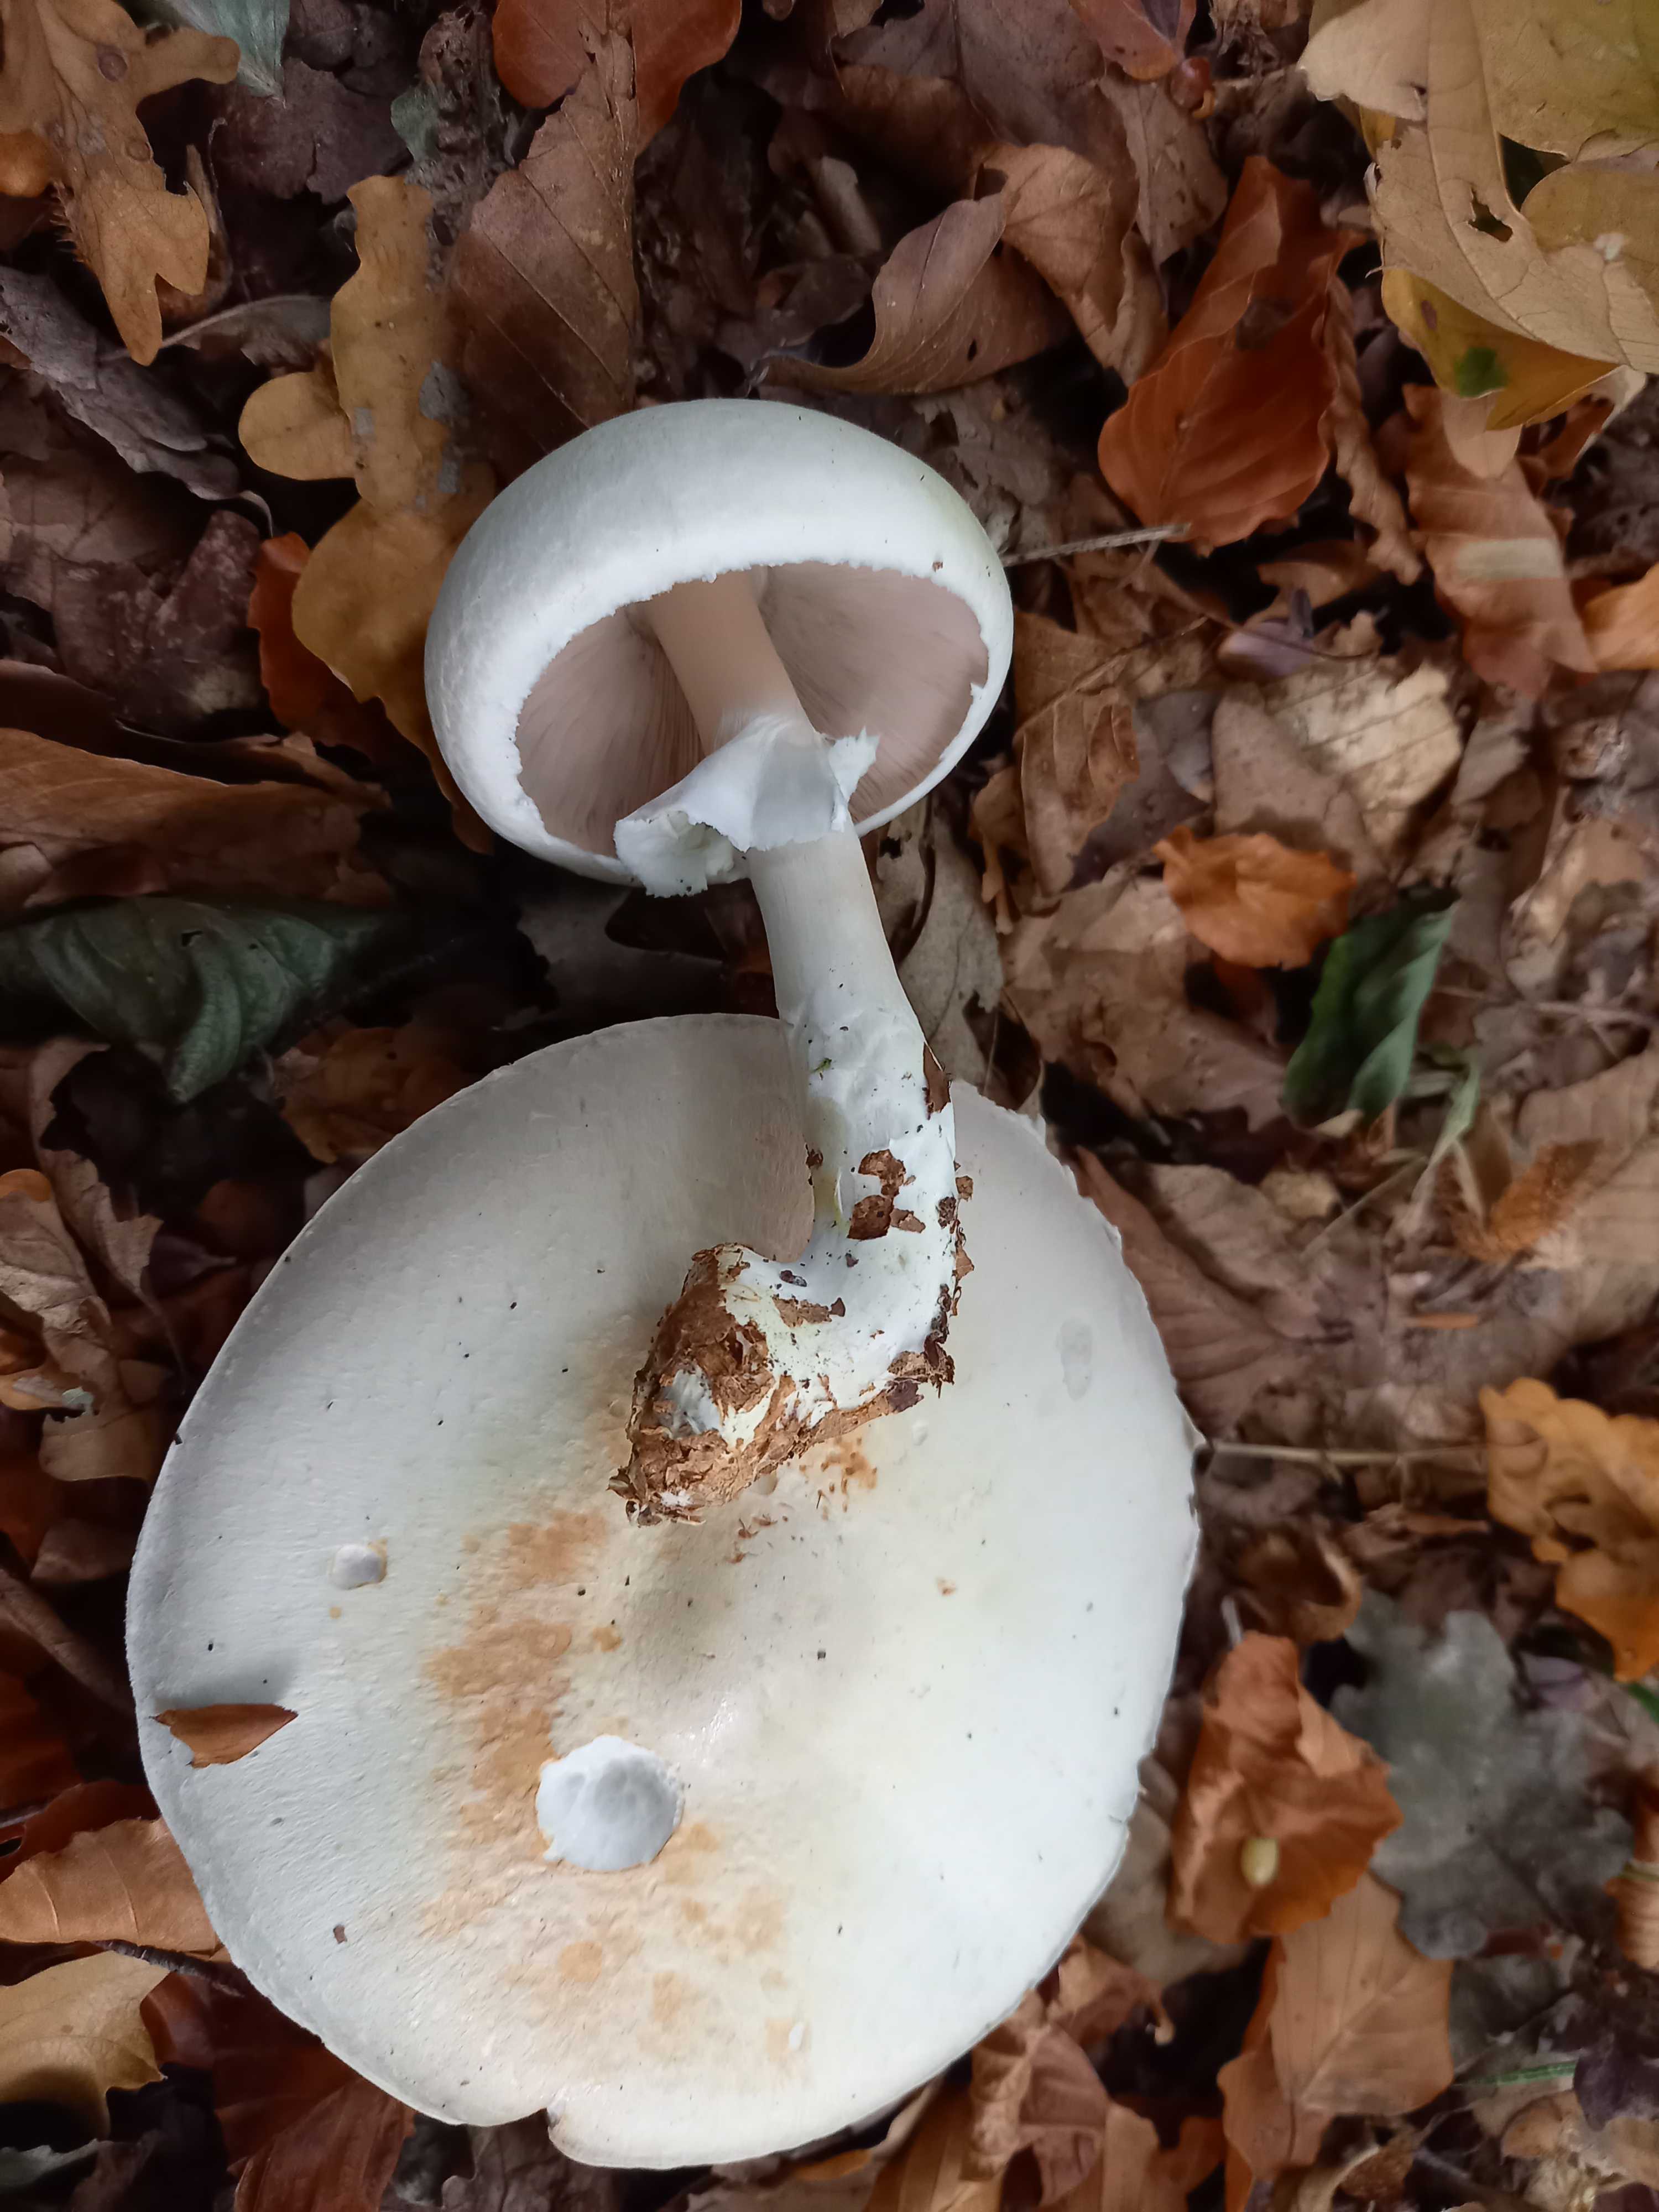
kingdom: Fungi
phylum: Basidiomycota
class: Agaricomycetes
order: Agaricales
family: Agaricaceae
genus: Agaricus
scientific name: Agaricus sylvicola
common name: skiveknoldet champignon
